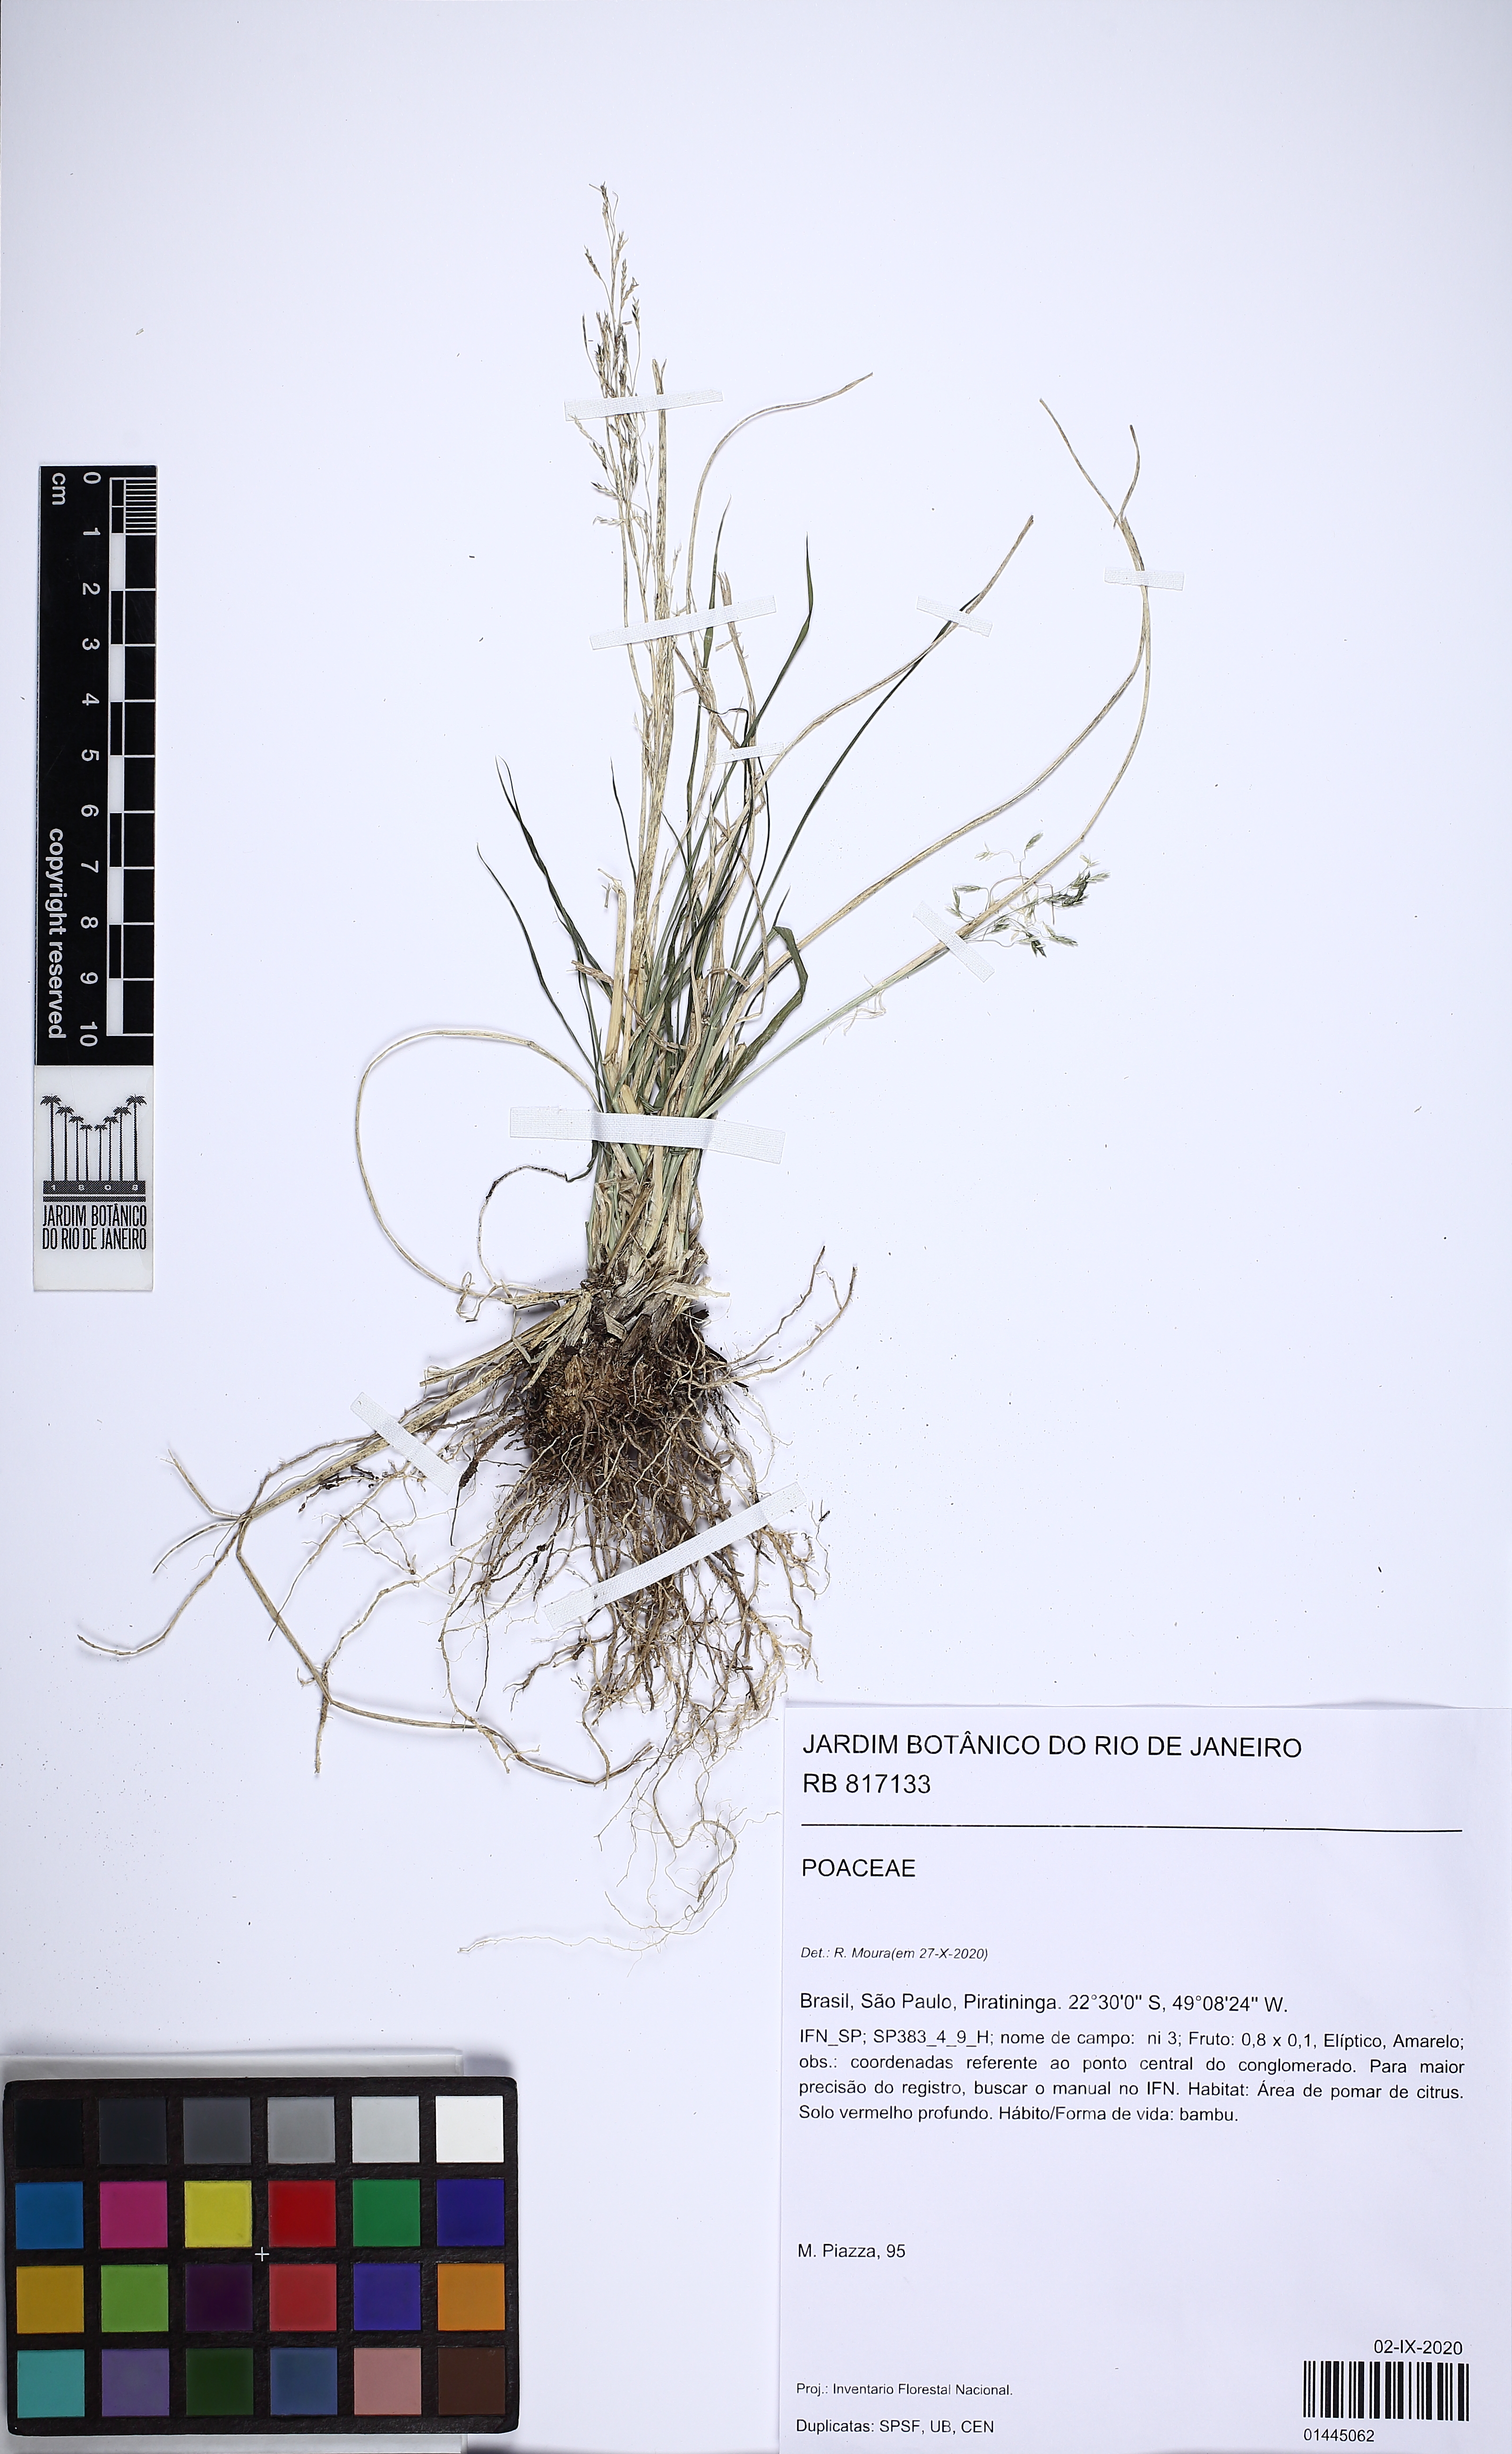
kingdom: Plantae
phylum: Tracheophyta
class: Liliopsida
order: Poales
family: Poaceae
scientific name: Poaceae
